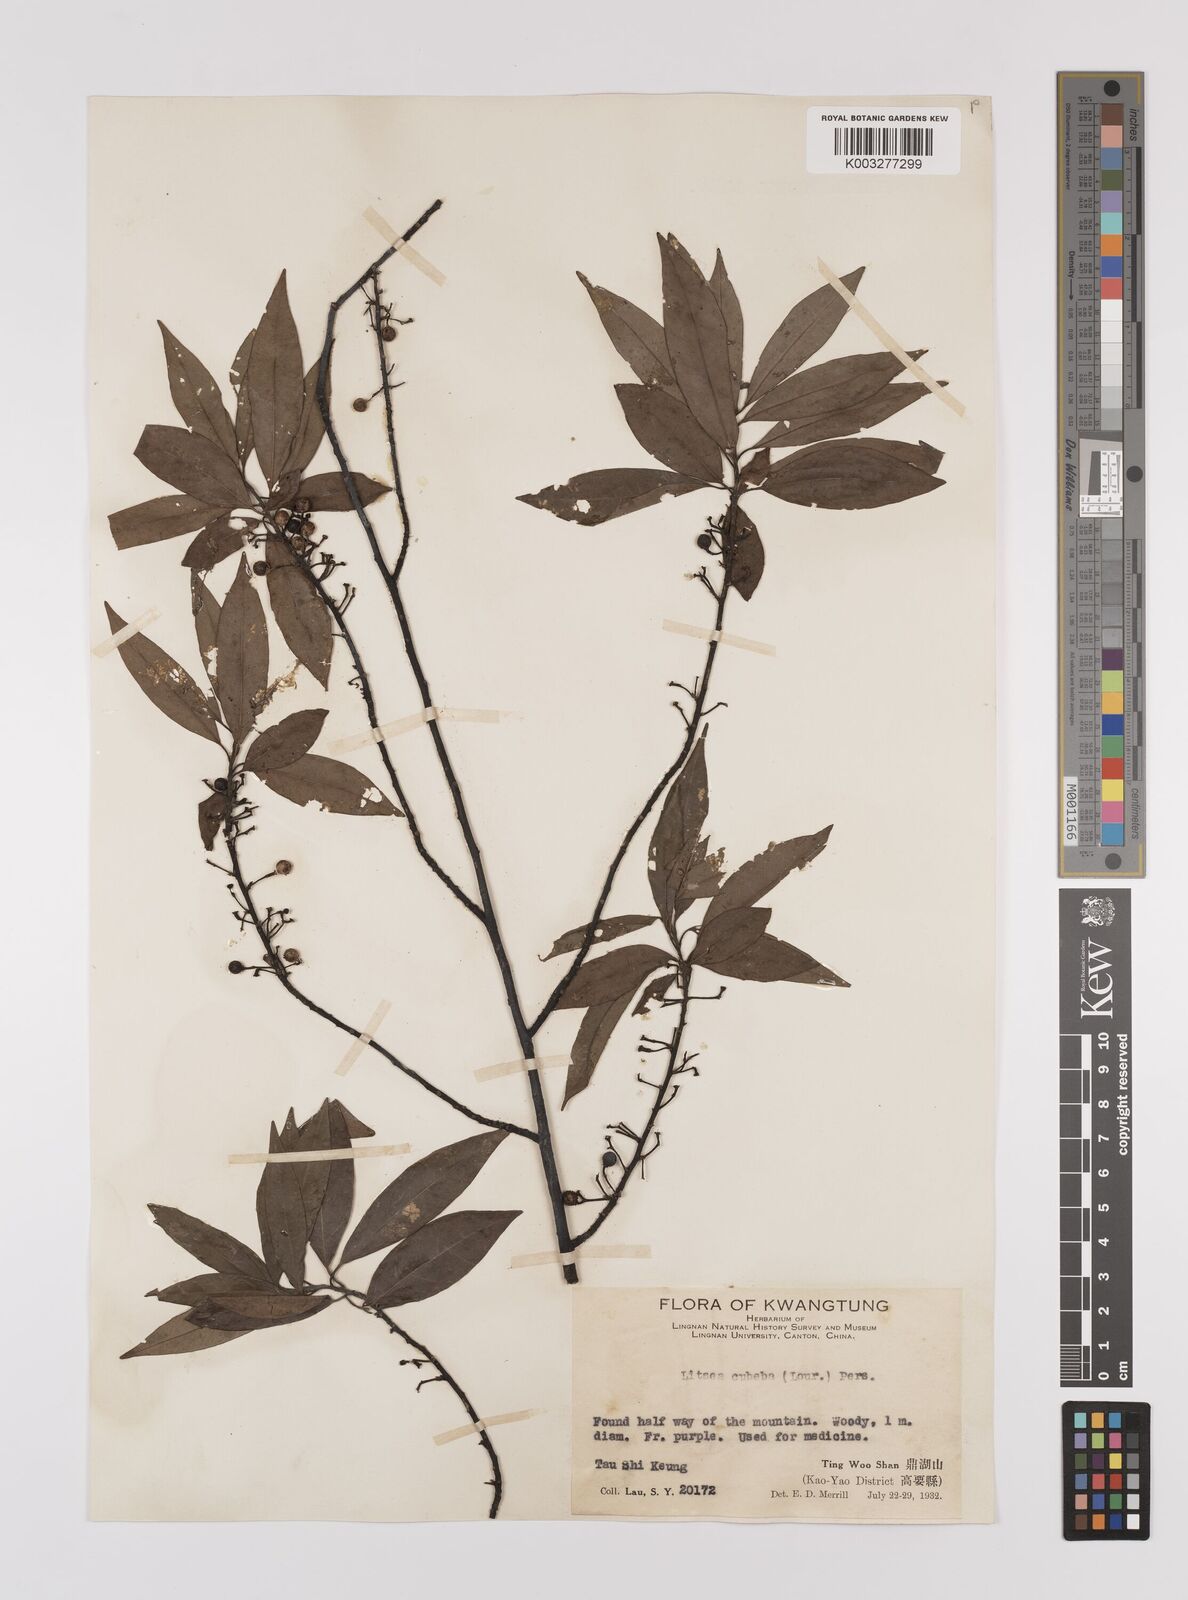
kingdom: Plantae
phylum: Tracheophyta
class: Magnoliopsida
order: Laurales
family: Lauraceae
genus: Litsea
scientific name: Litsea cubeba
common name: Mountain-pepper
